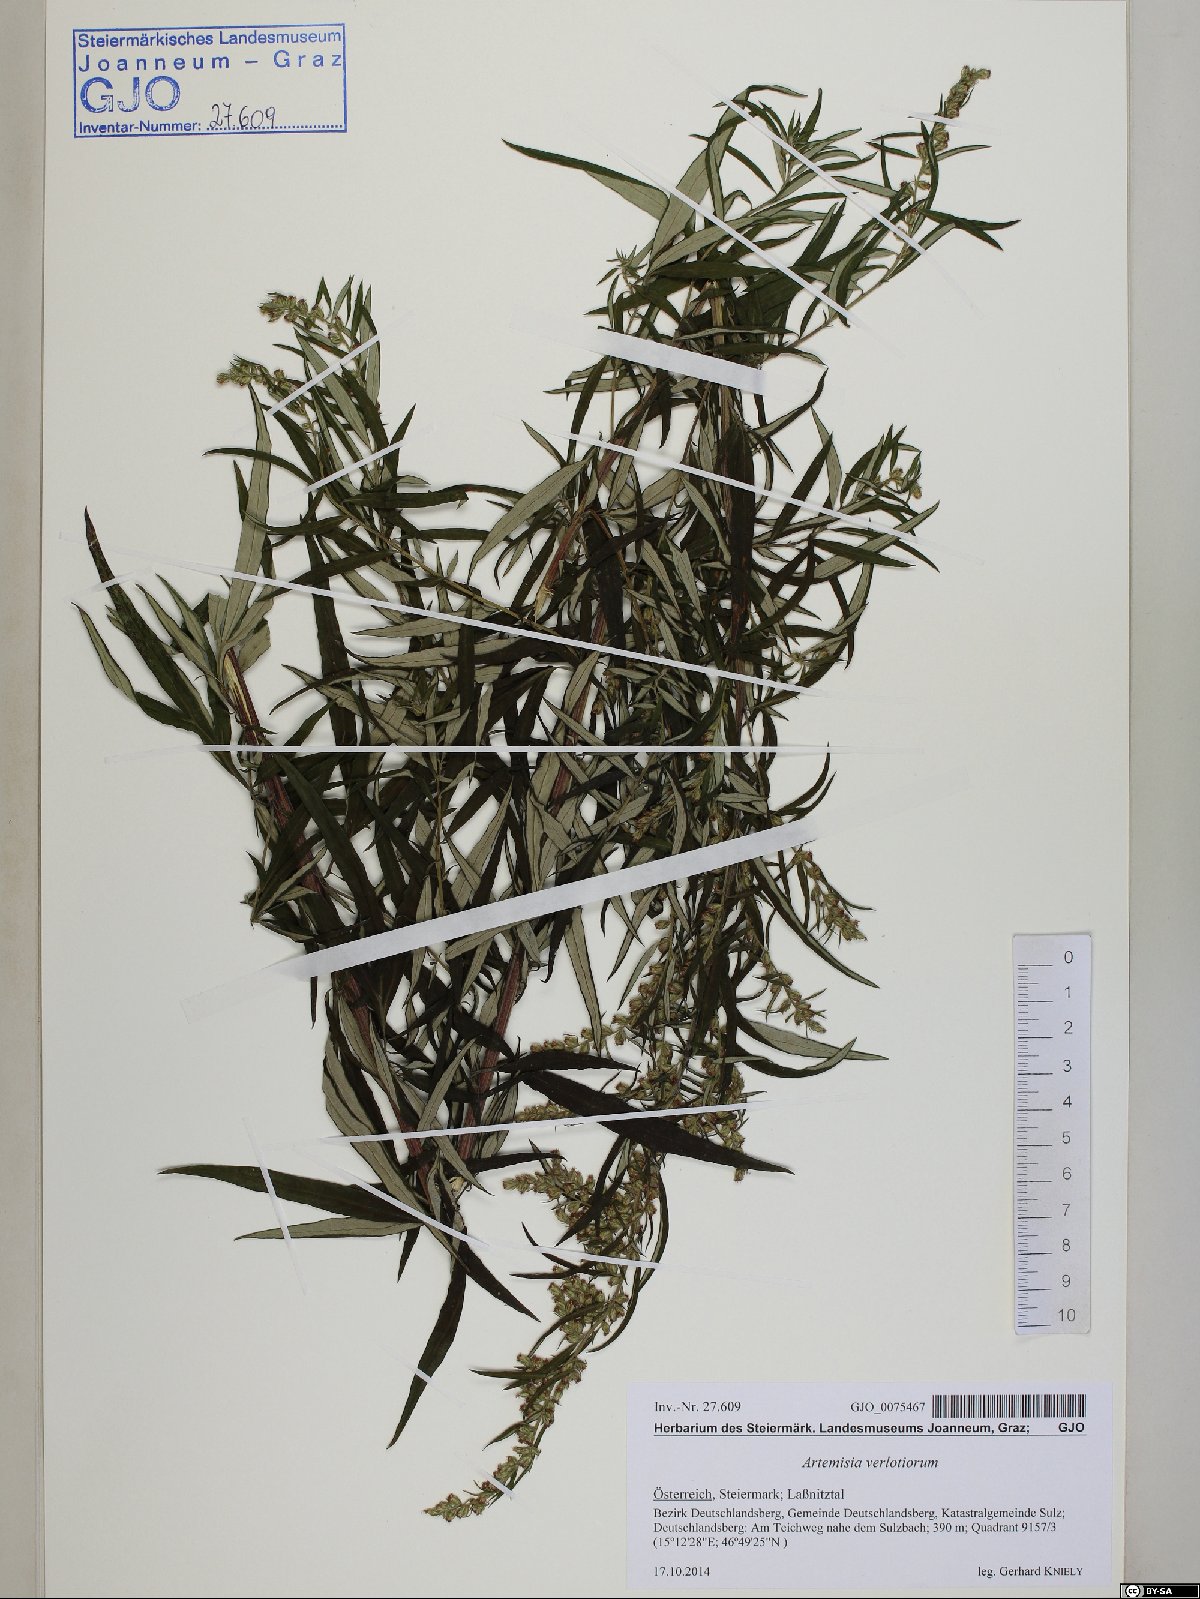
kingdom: Plantae
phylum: Tracheophyta
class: Magnoliopsida
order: Asterales
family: Asteraceae
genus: Artemisia
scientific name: Artemisia verlotiorum
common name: Chinese mugwort
